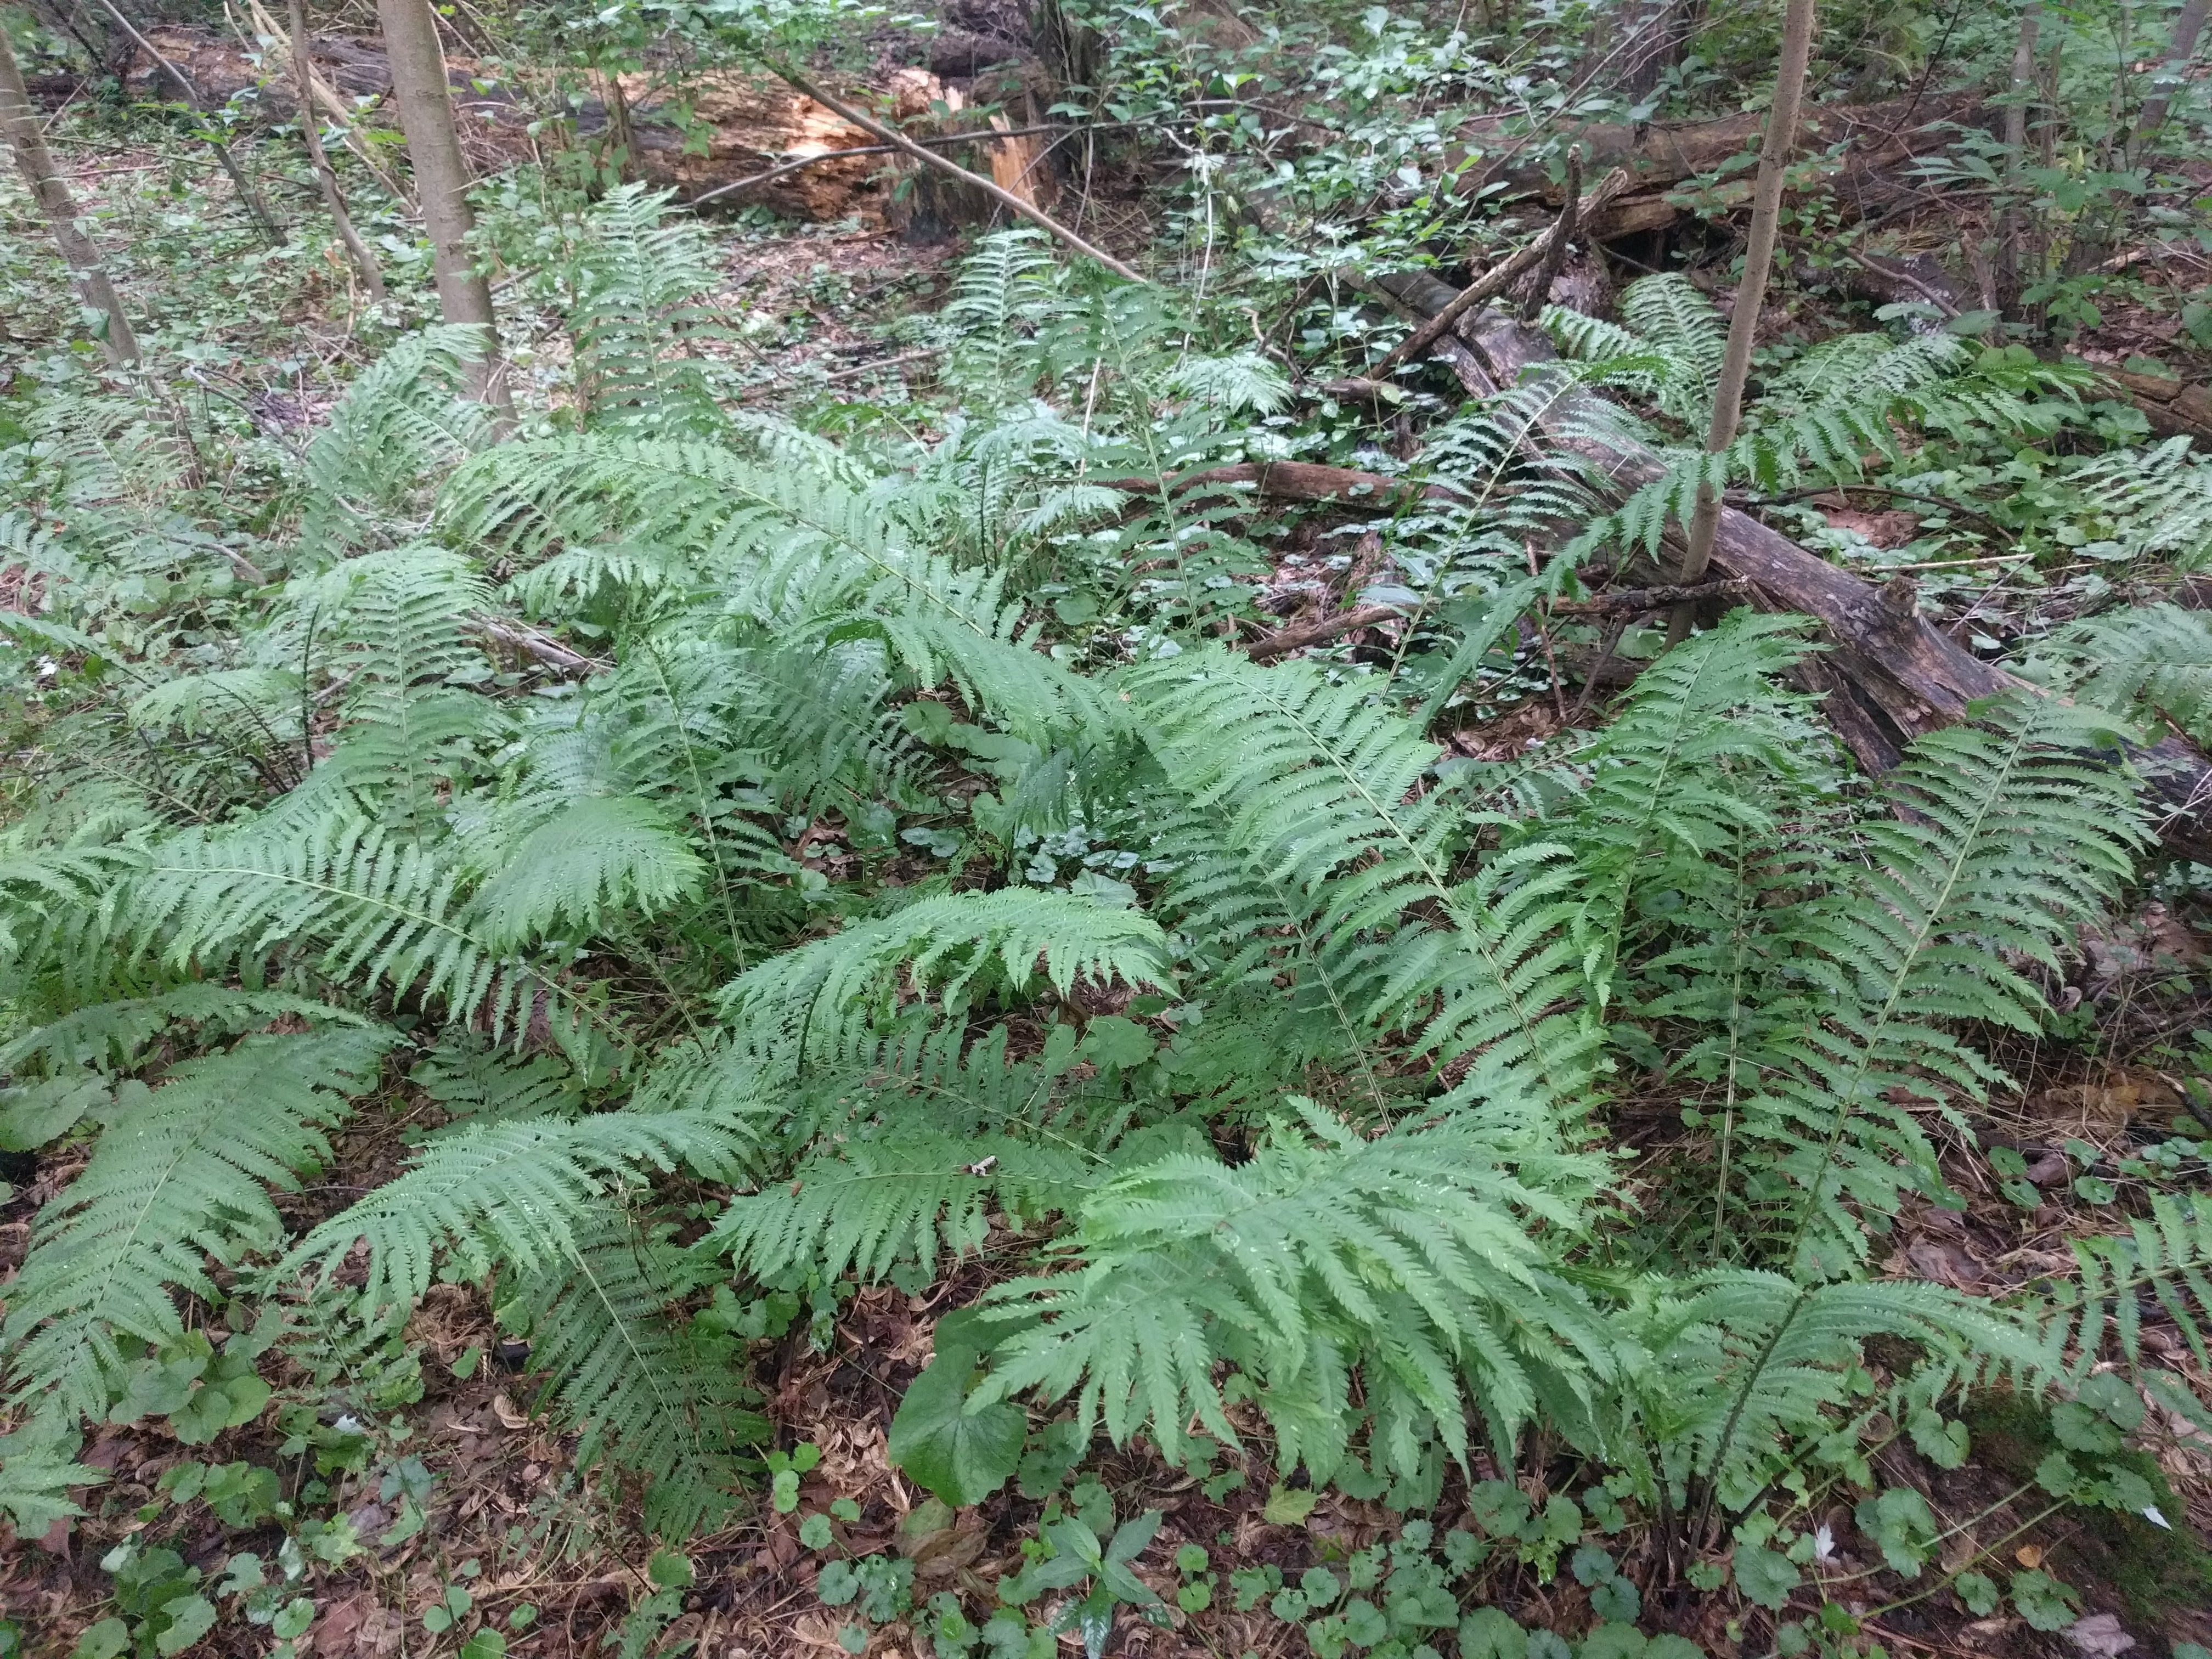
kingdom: Plantae
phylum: Tracheophyta
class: Polypodiopsida
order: Polypodiales
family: Onocleaceae
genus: Matteuccia
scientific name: Matteuccia struthiopteris
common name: Ostrich fern
